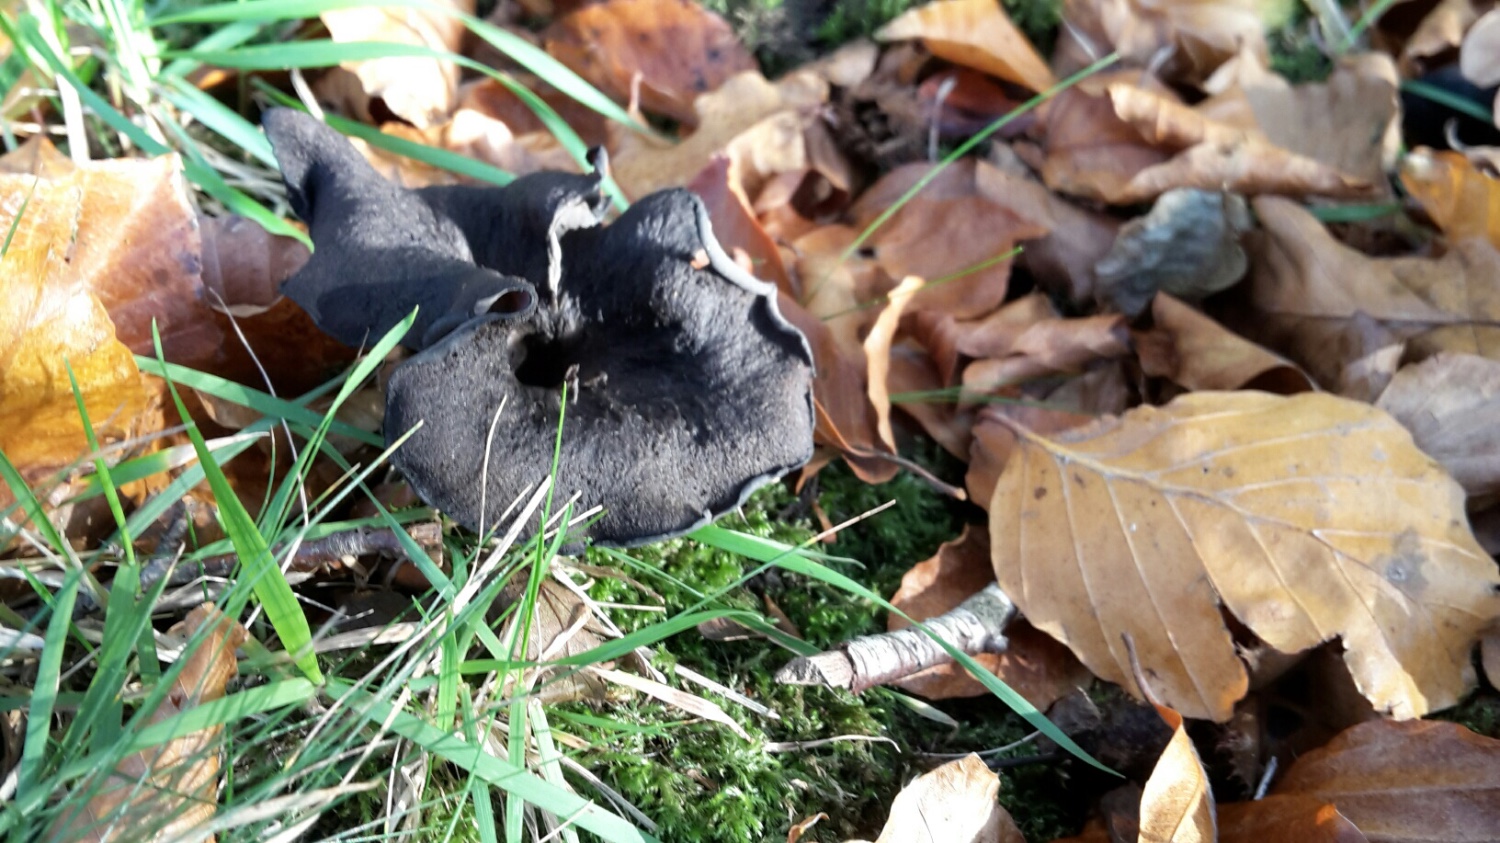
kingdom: Fungi
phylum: Basidiomycota
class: Agaricomycetes
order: Cantharellales
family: Hydnaceae
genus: Craterellus
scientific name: Craterellus cornucopioides
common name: trompetsvamp
